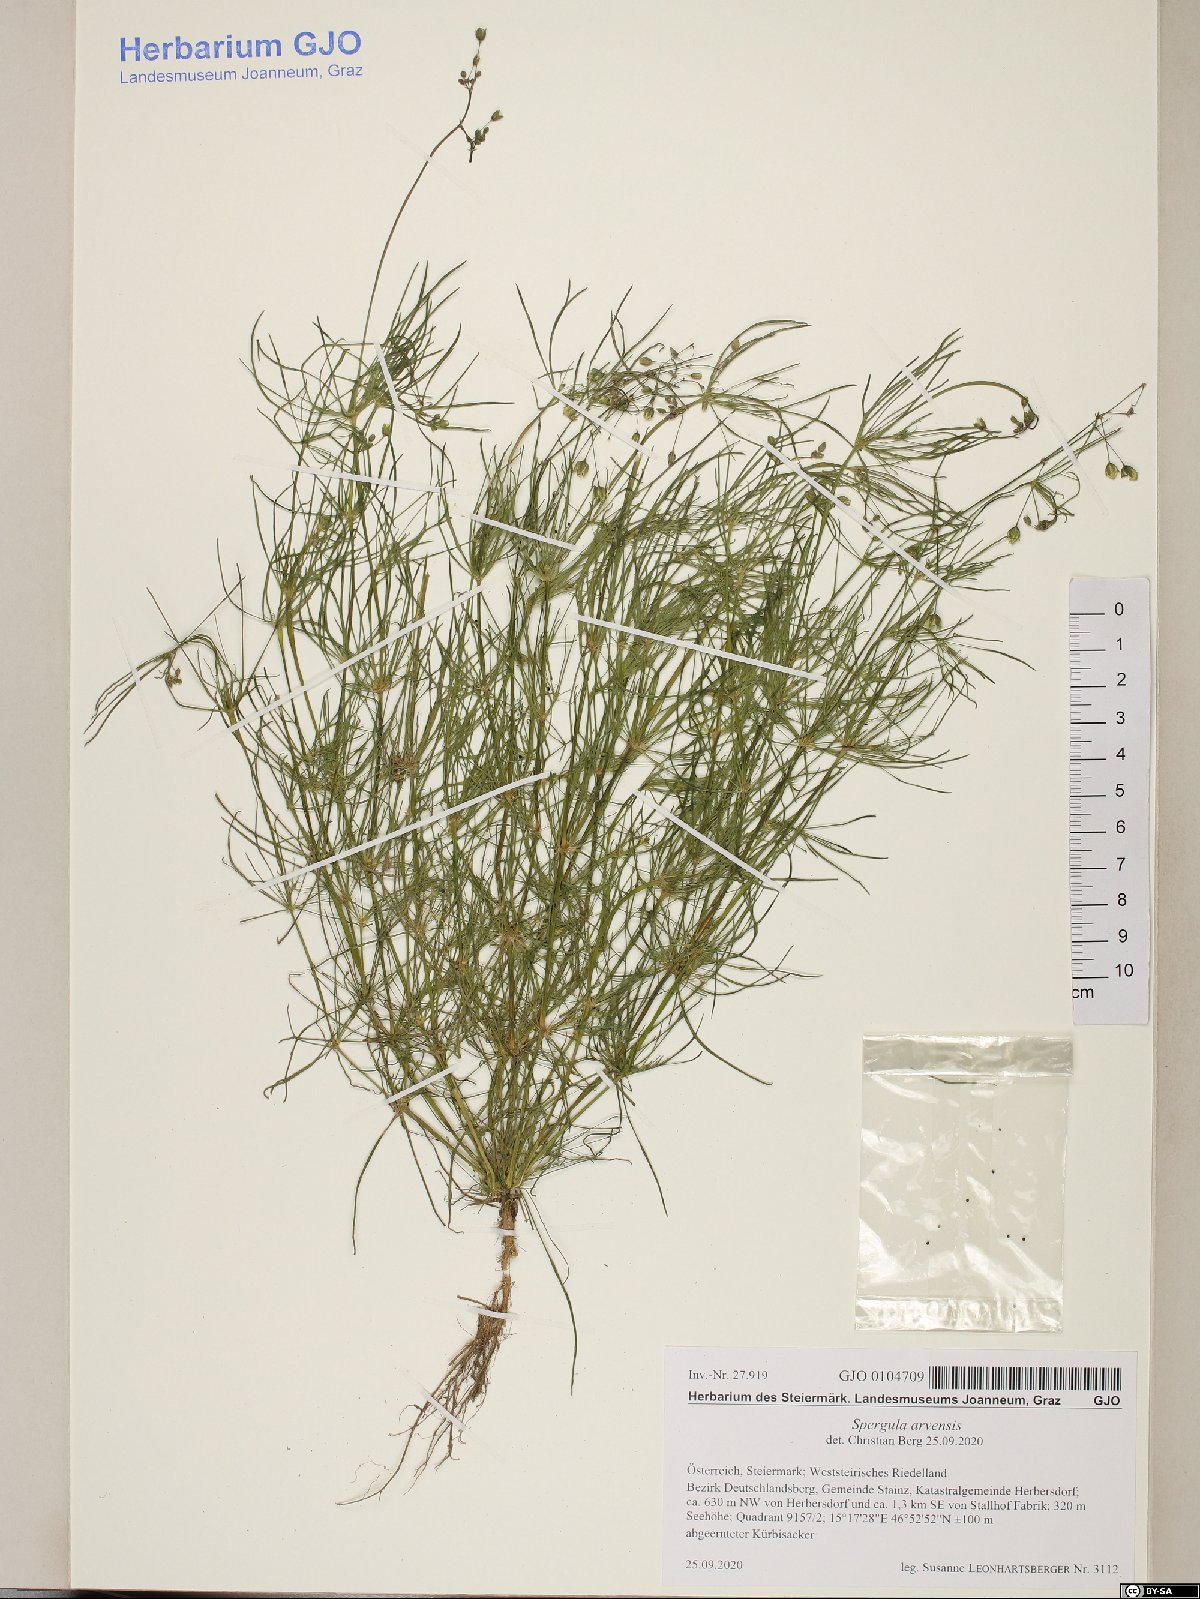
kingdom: Plantae
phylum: Tracheophyta
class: Magnoliopsida
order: Caryophyllales
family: Caryophyllaceae
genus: Spergula
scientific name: Spergula arvensis
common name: Corn spurrey
